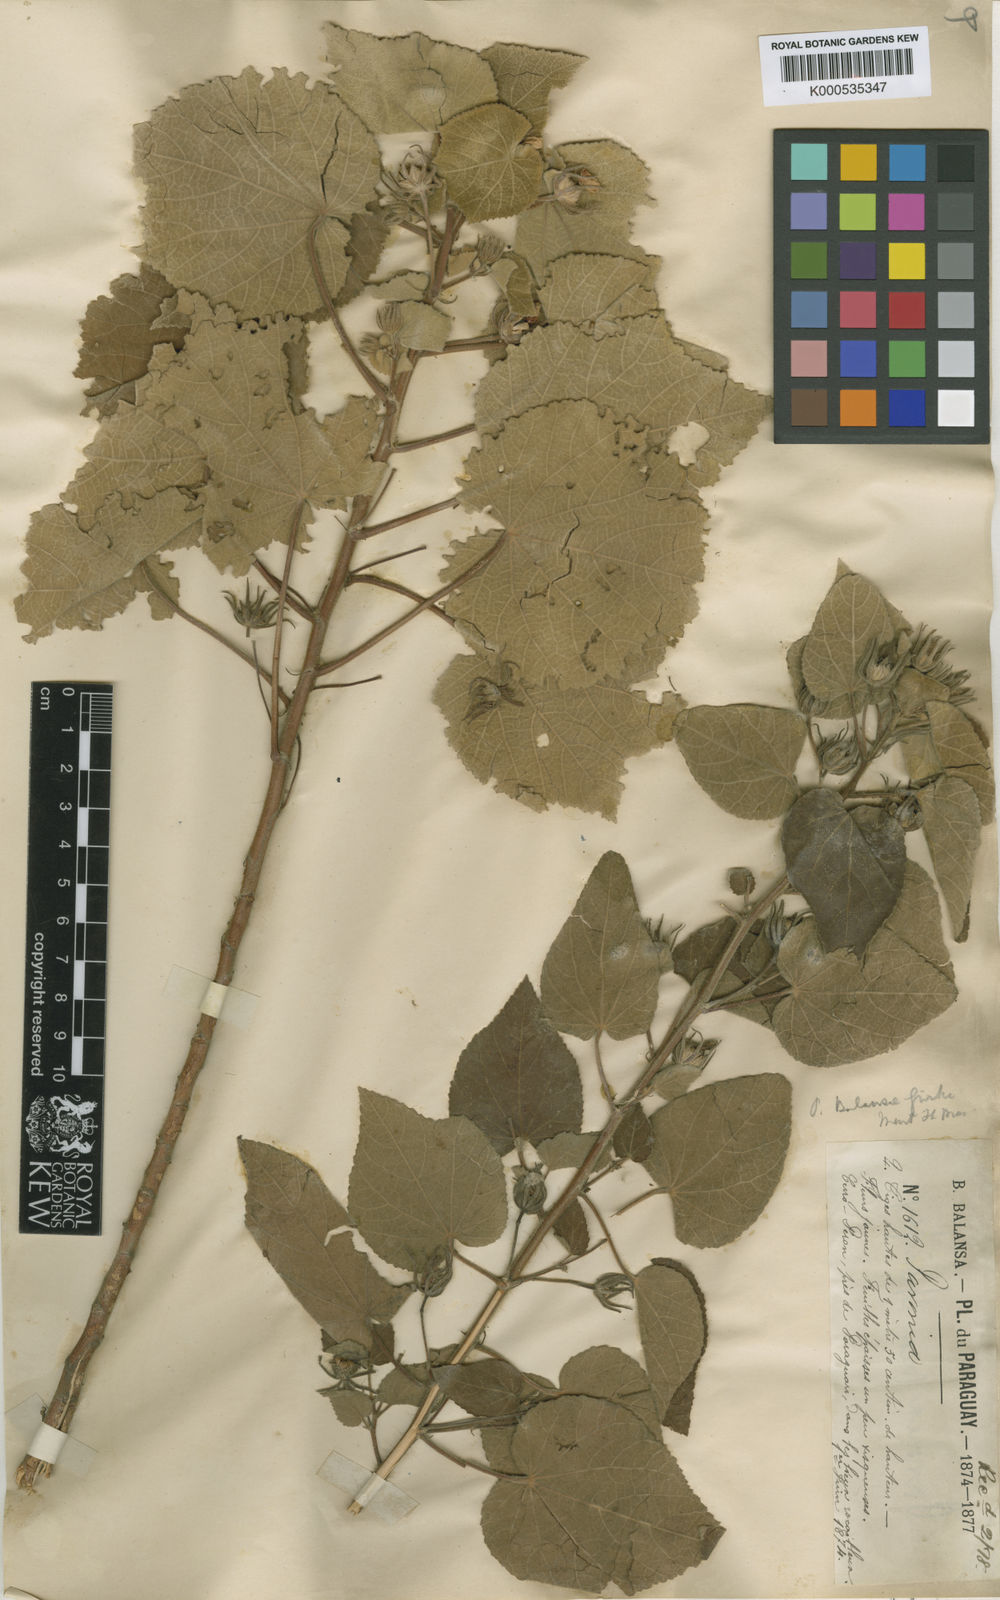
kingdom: Plantae
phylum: Tracheophyta
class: Magnoliopsida
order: Malvales
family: Malvaceae
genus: Pavonia
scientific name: Pavonia
